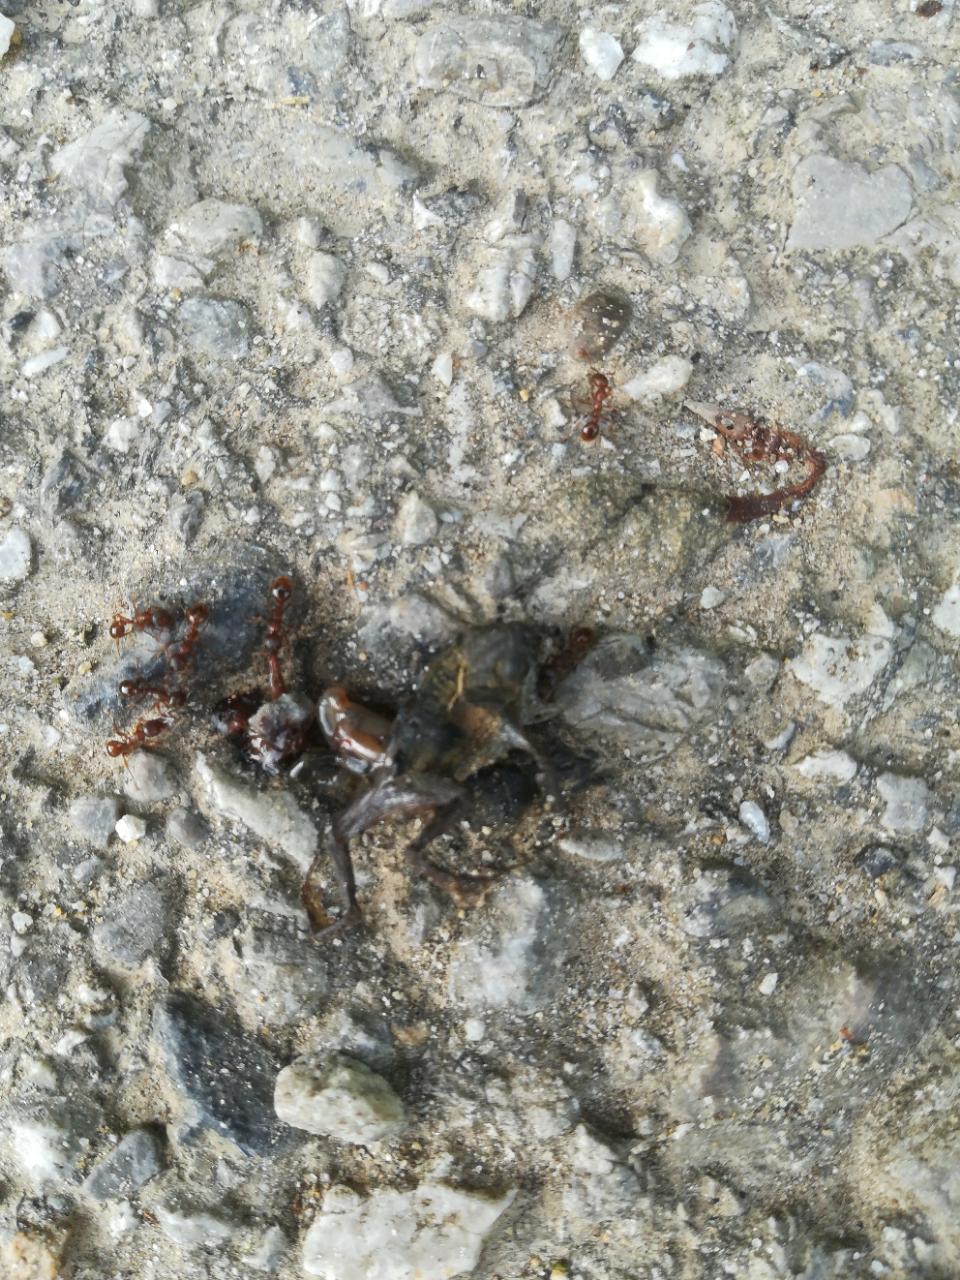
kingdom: Animalia
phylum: Chordata
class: Amphibia
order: Anura
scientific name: Anura
